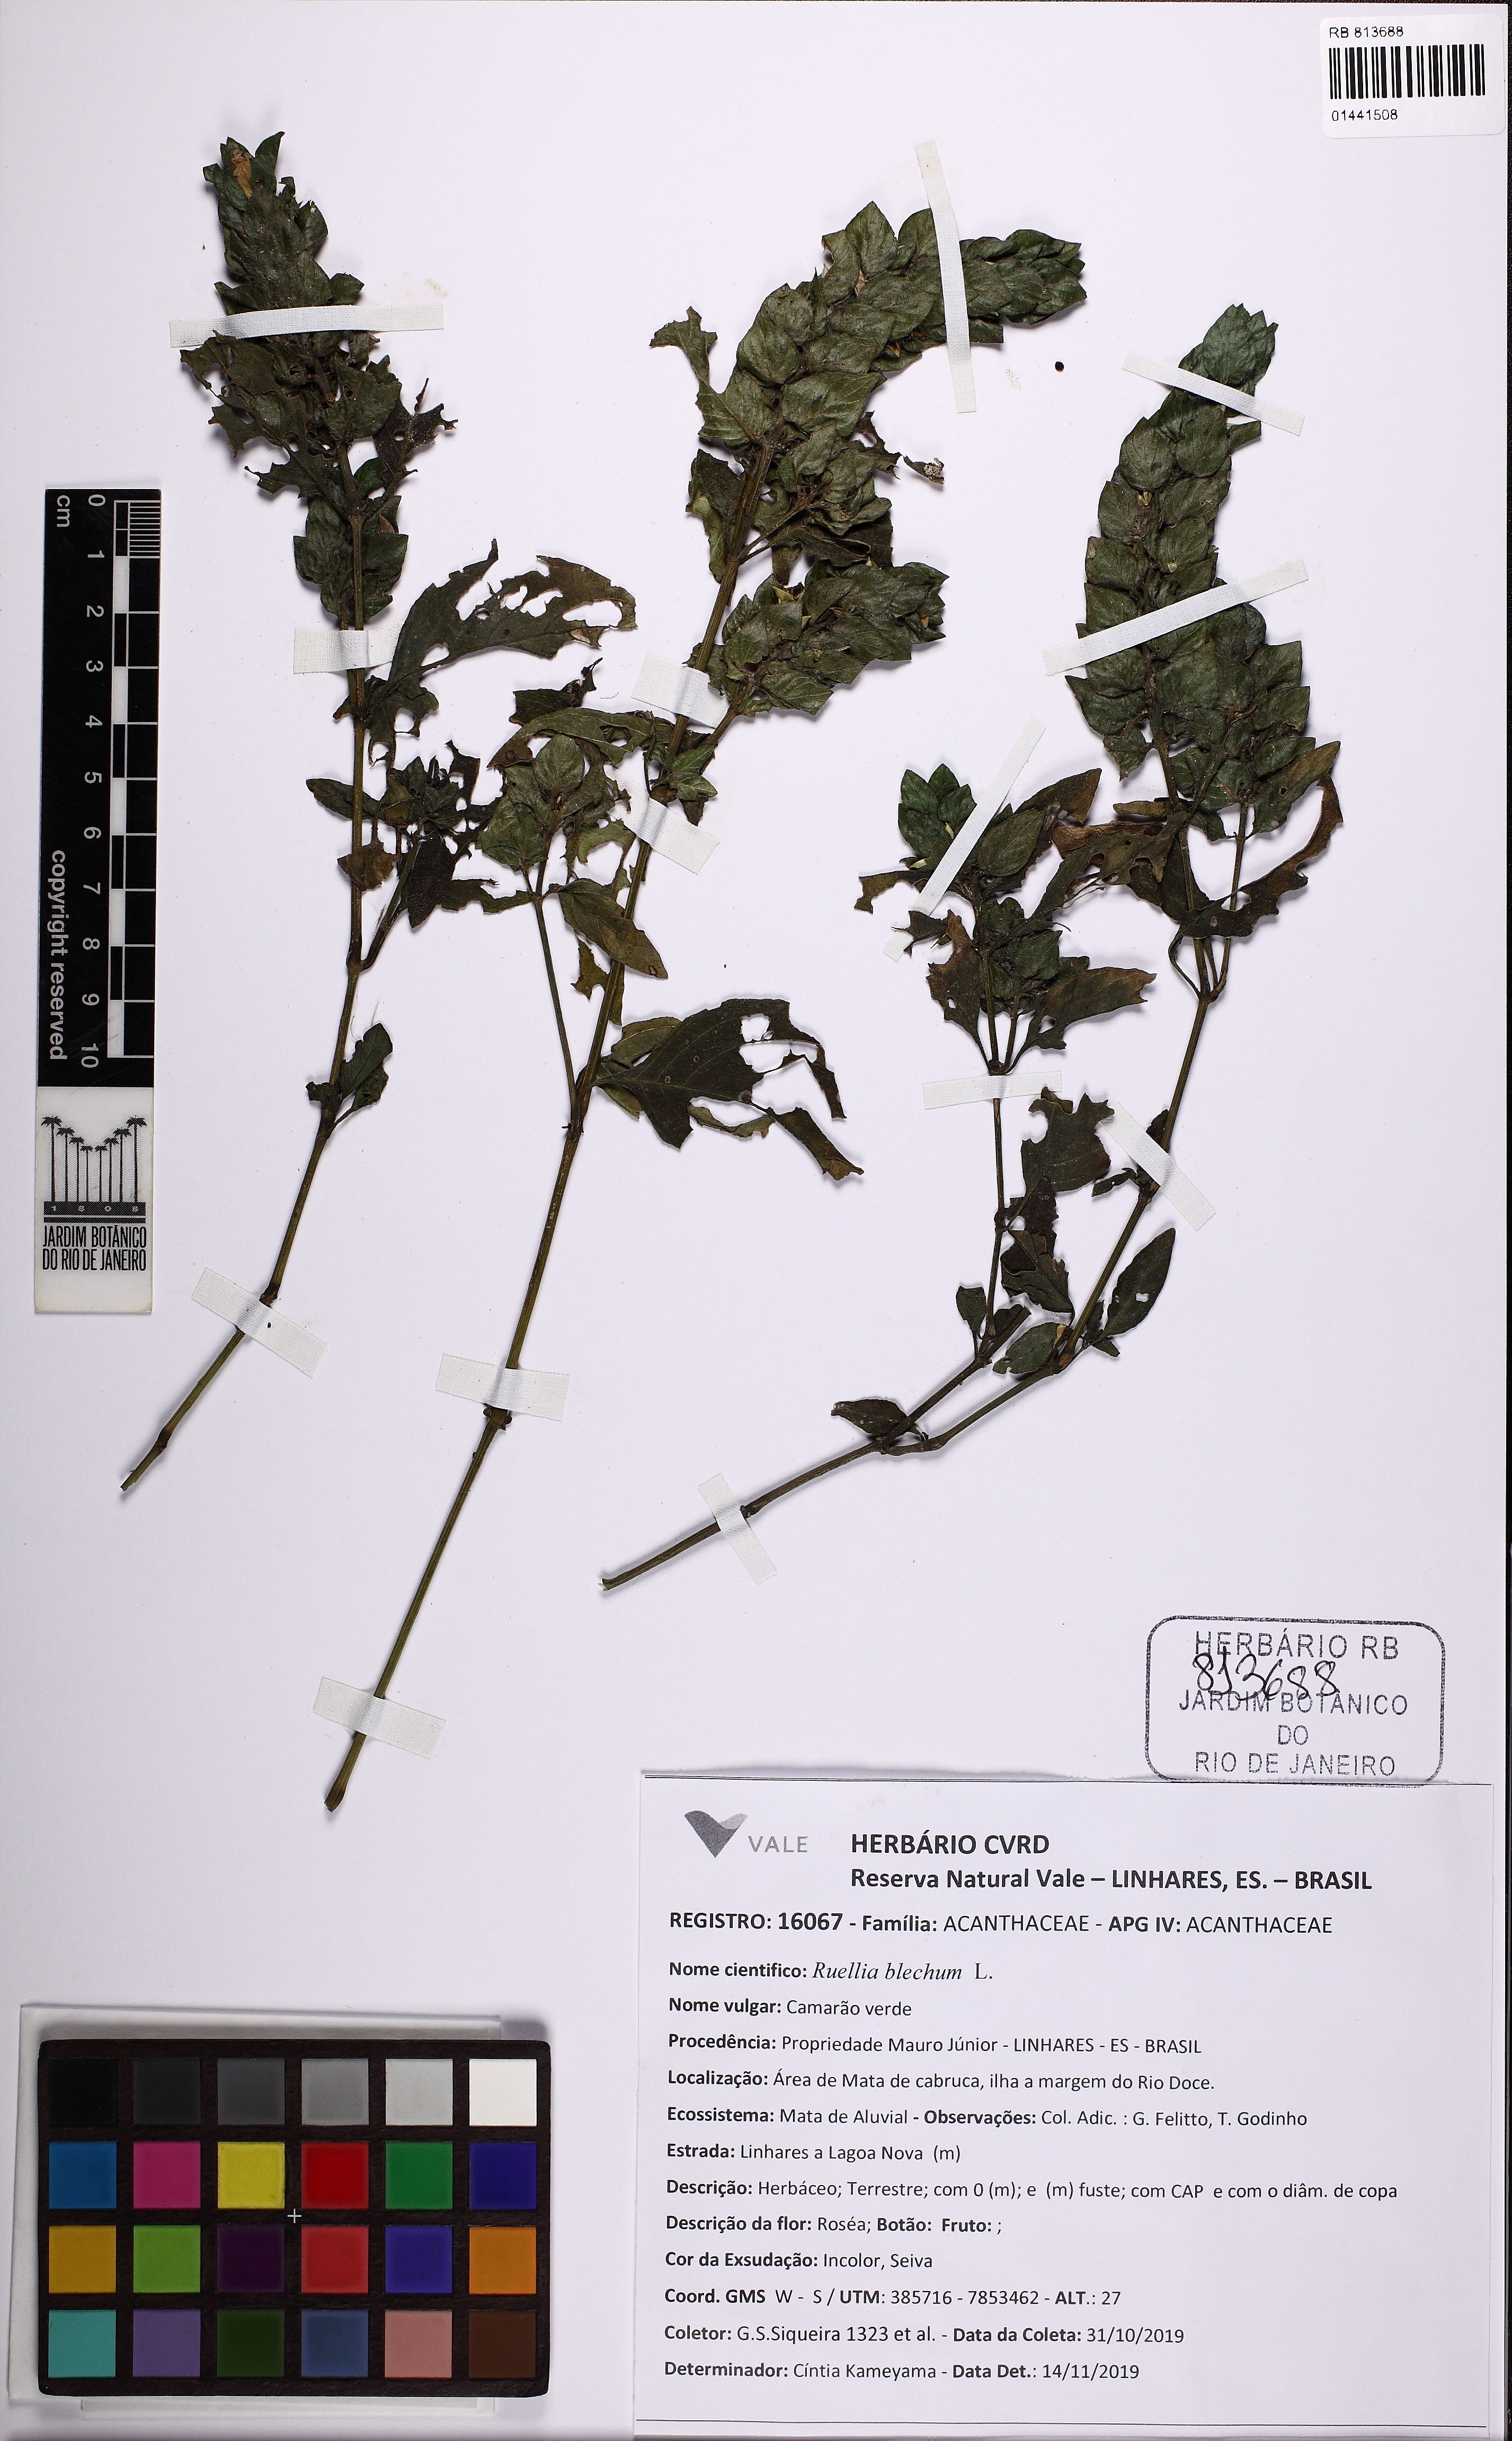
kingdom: Plantae
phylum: Tracheophyta
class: Magnoliopsida
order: Lamiales
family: Acanthaceae
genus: Ruellia
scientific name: Ruellia blechum
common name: Browne's blechum
